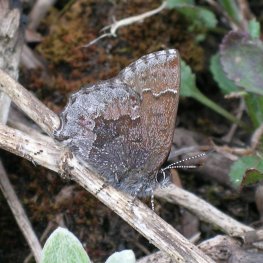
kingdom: Animalia
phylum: Arthropoda
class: Insecta
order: Lepidoptera
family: Lycaenidae
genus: Callophrys
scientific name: Callophrys polios
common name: Hoary Elfin
